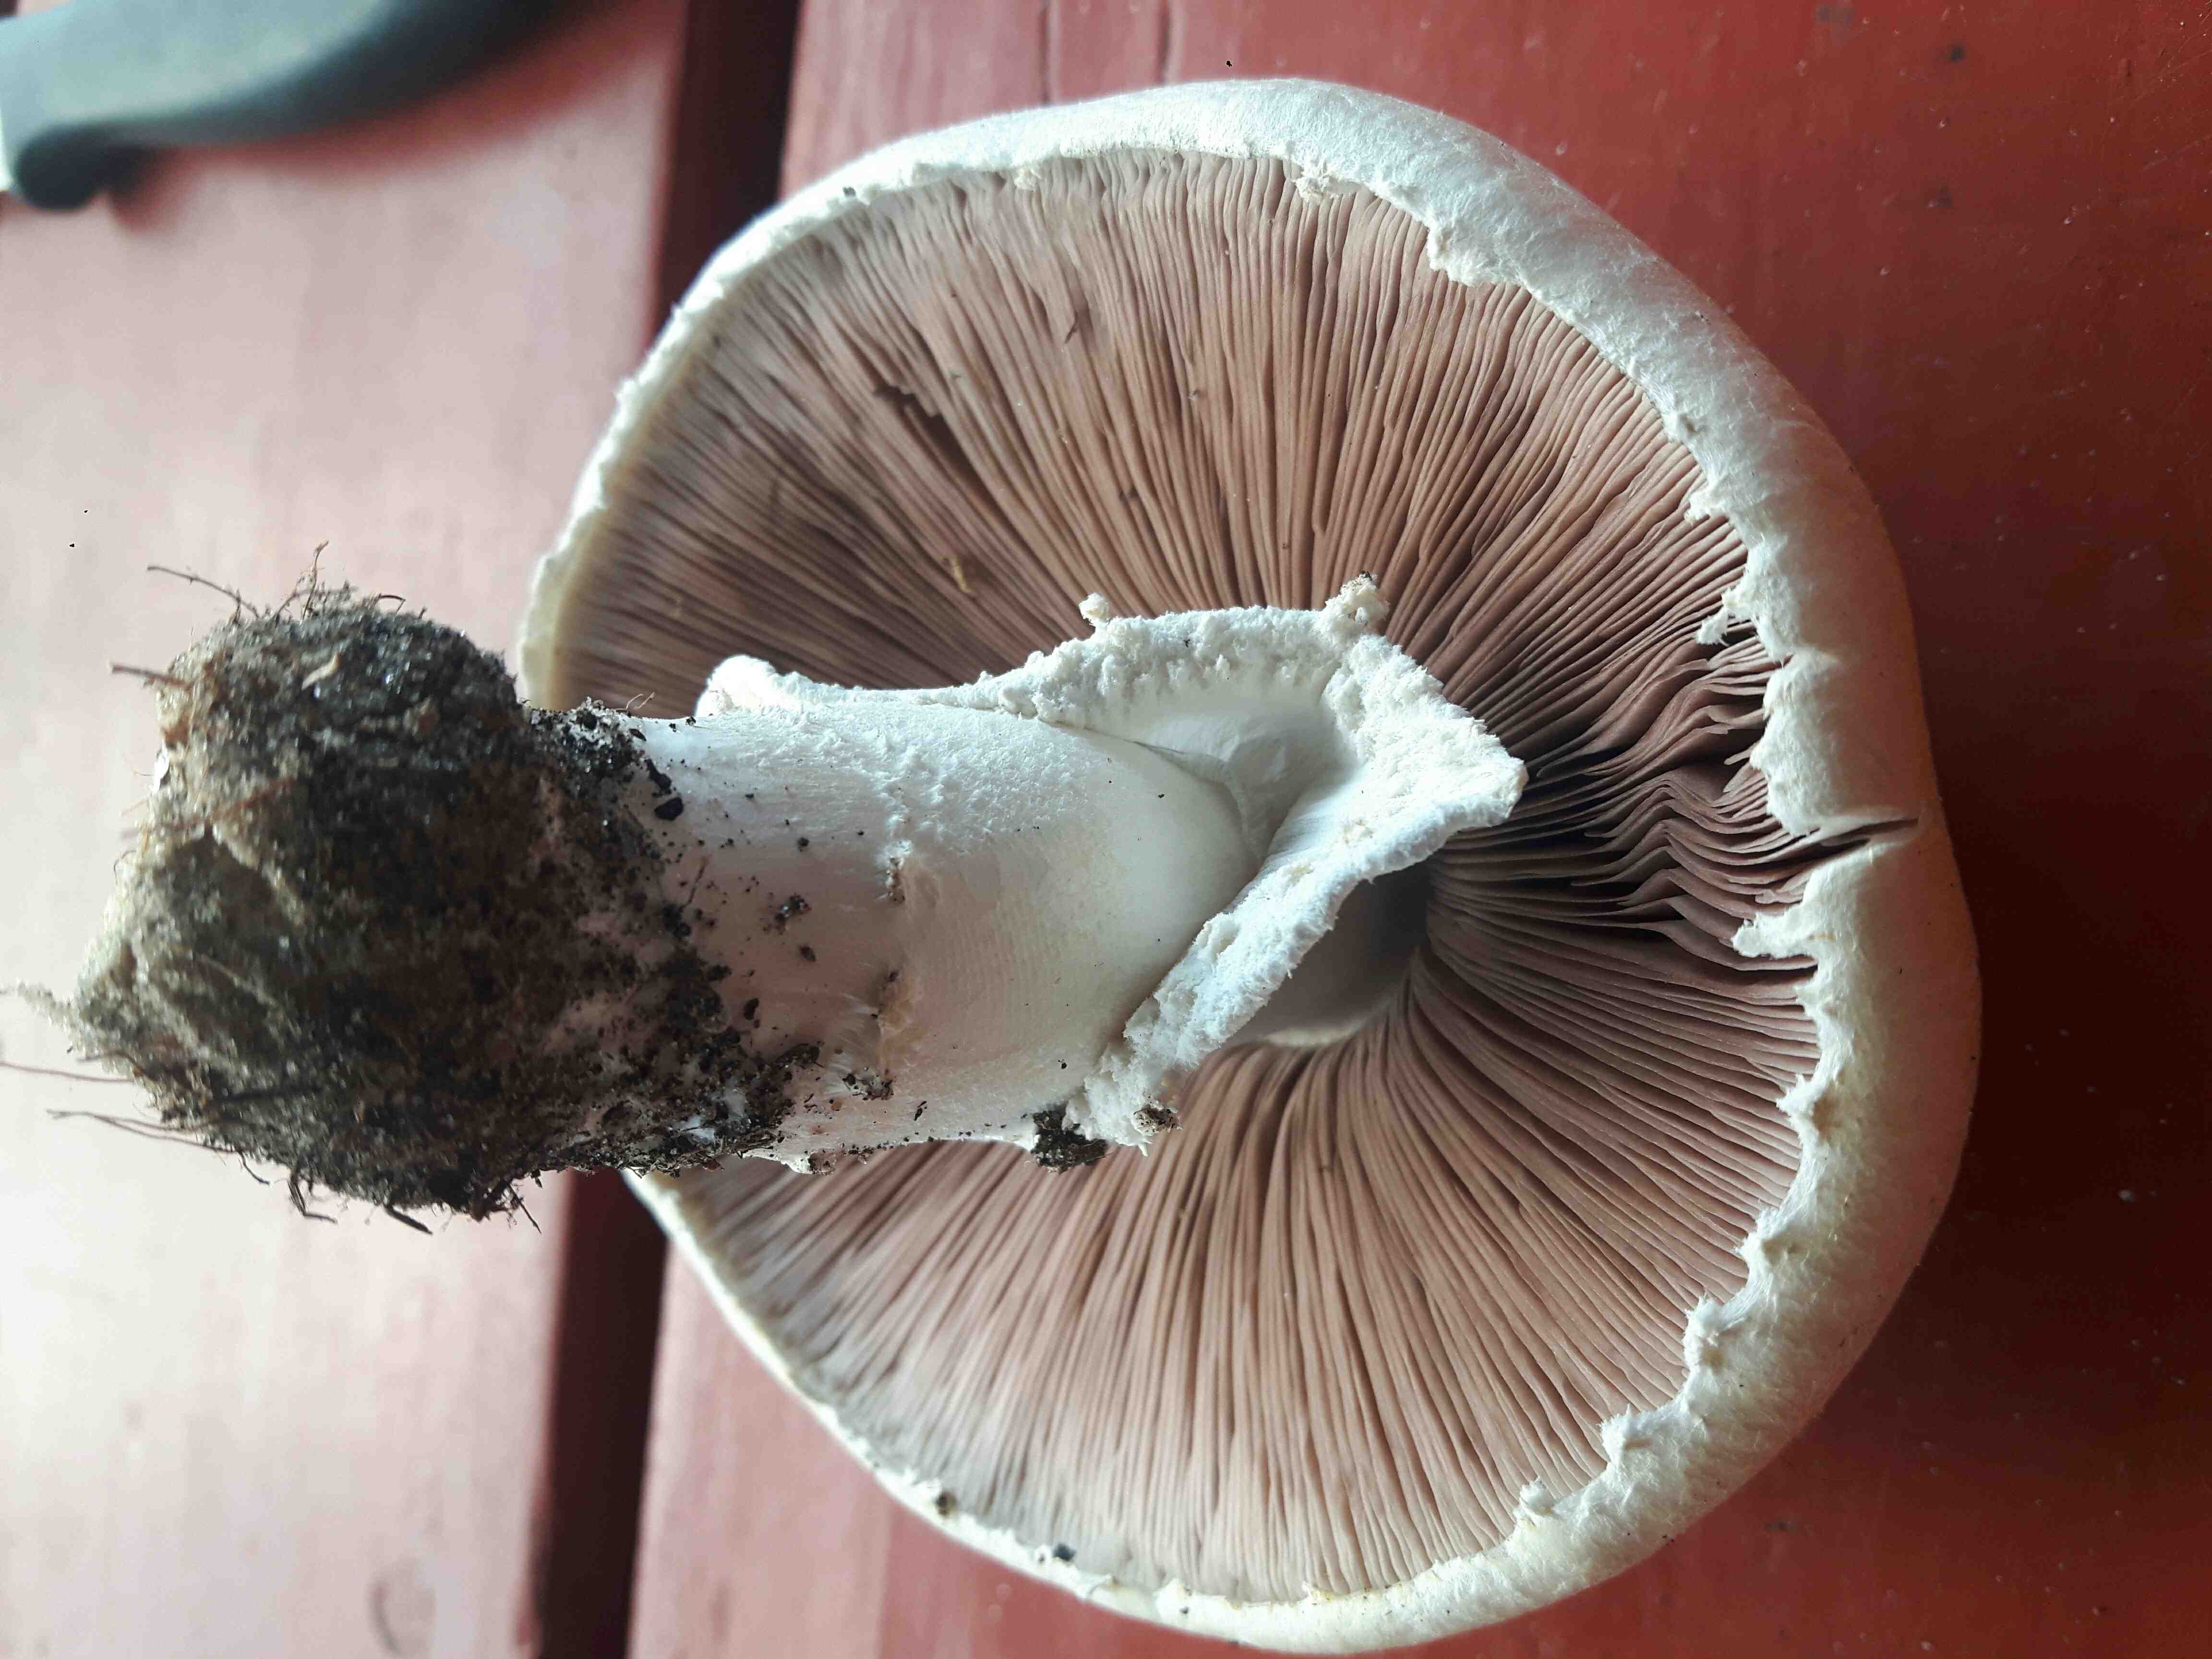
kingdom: Fungi
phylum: Basidiomycota
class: Agaricomycetes
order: Agaricales
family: Agaricaceae
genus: Agaricus
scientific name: Agaricus
